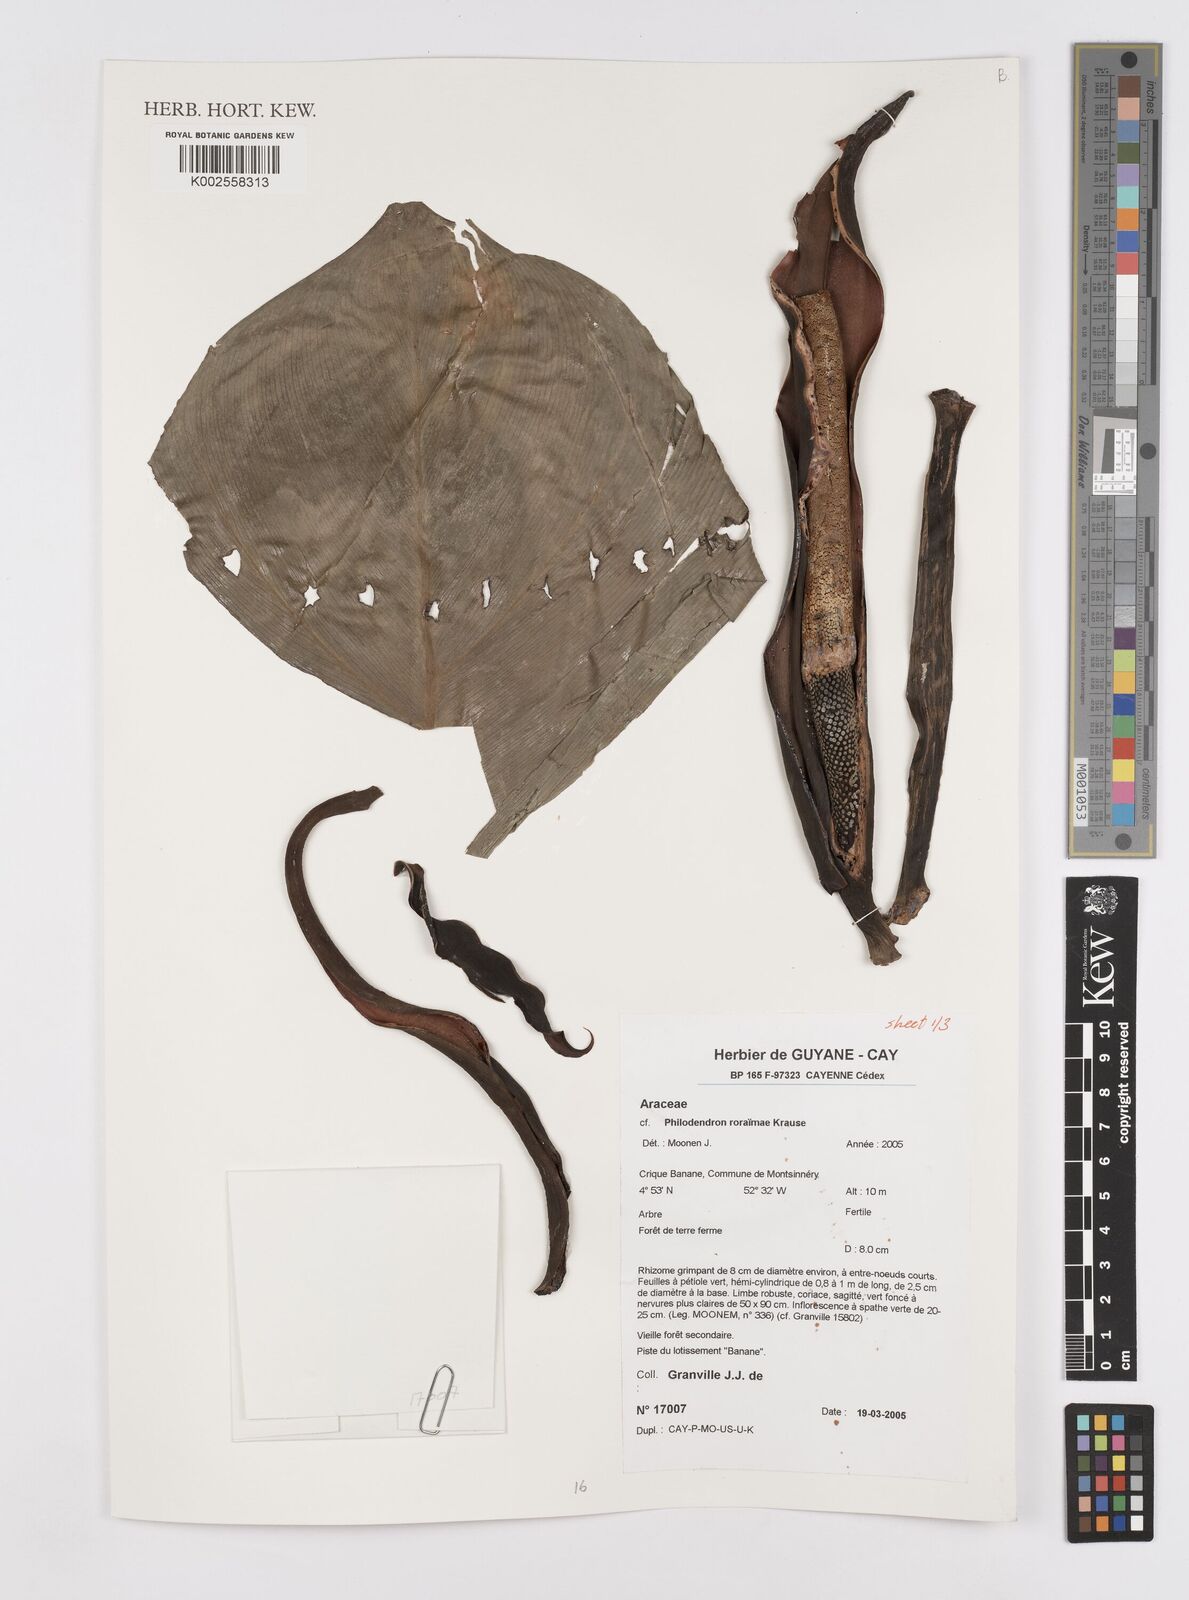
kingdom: Plantae
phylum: Tracheophyta
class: Liliopsida
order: Alismatales
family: Araceae
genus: Philodendron
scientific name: Philodendron roraimae
